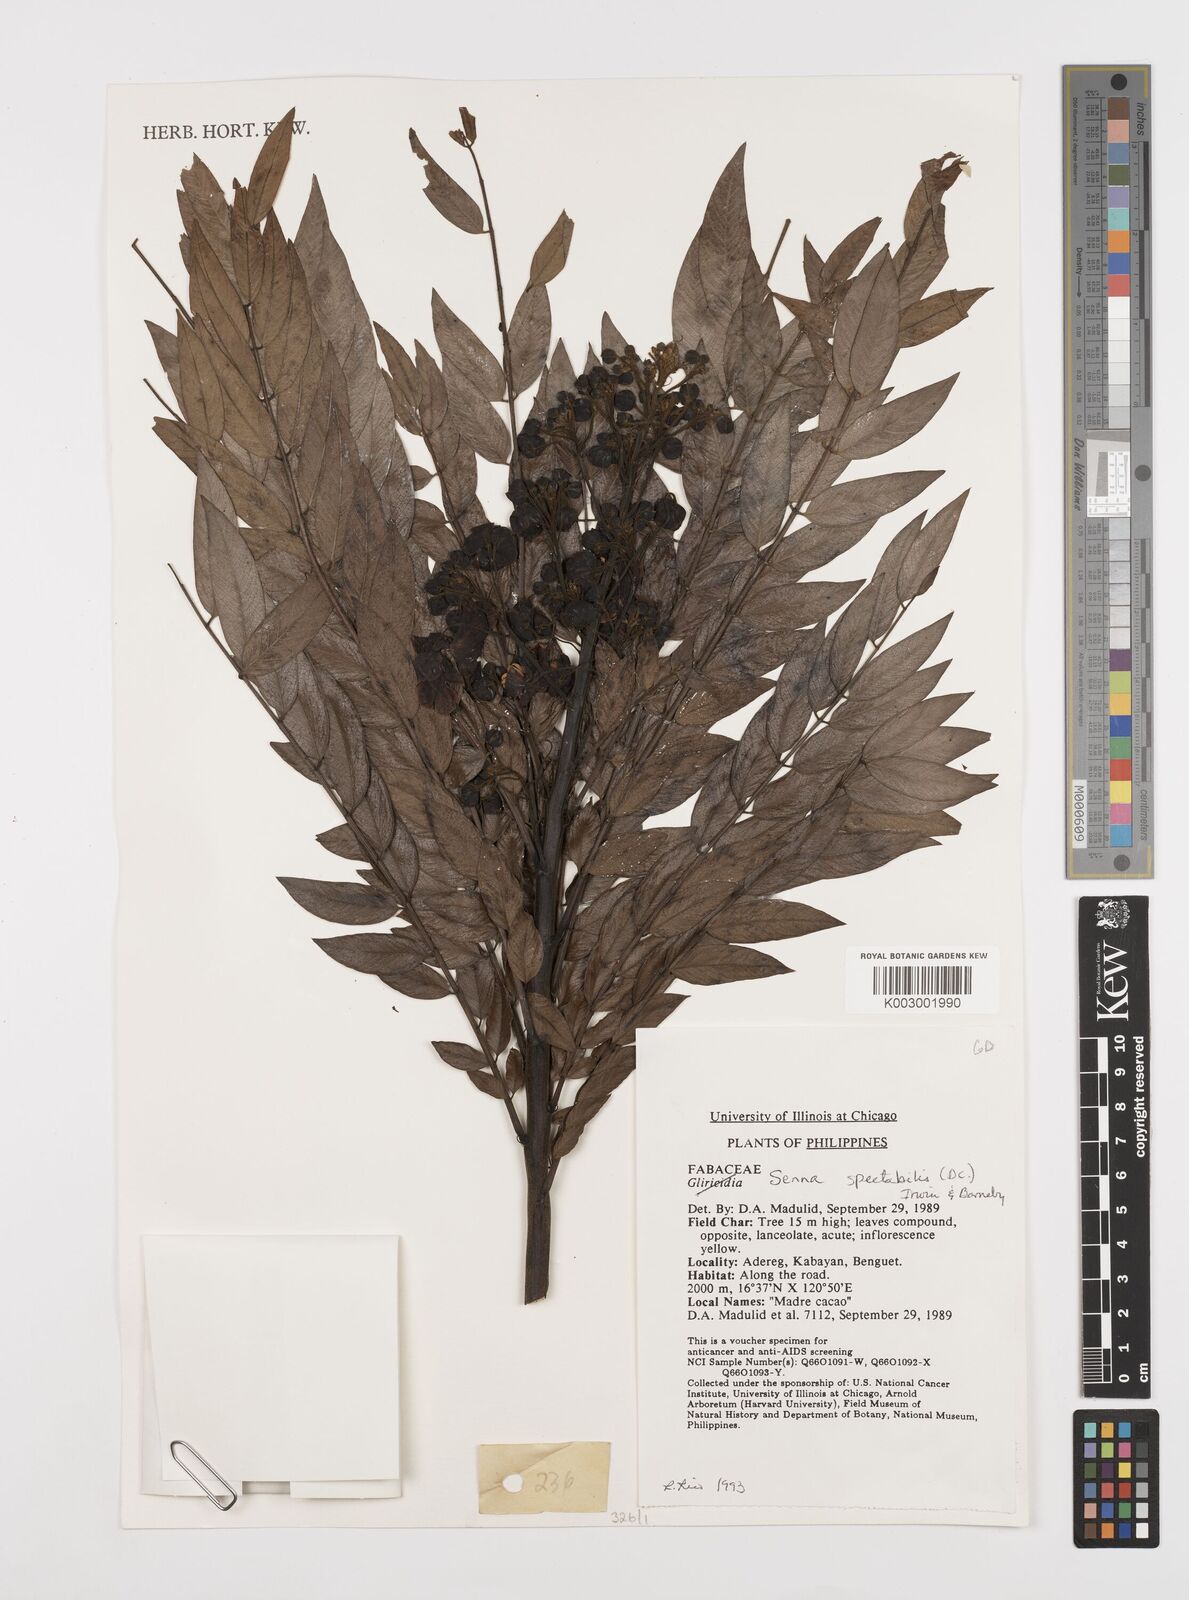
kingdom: Plantae
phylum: Tracheophyta
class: Magnoliopsida
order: Fabales
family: Fabaceae
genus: Senna
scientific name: Senna spectabilis
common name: Casia amarilla
